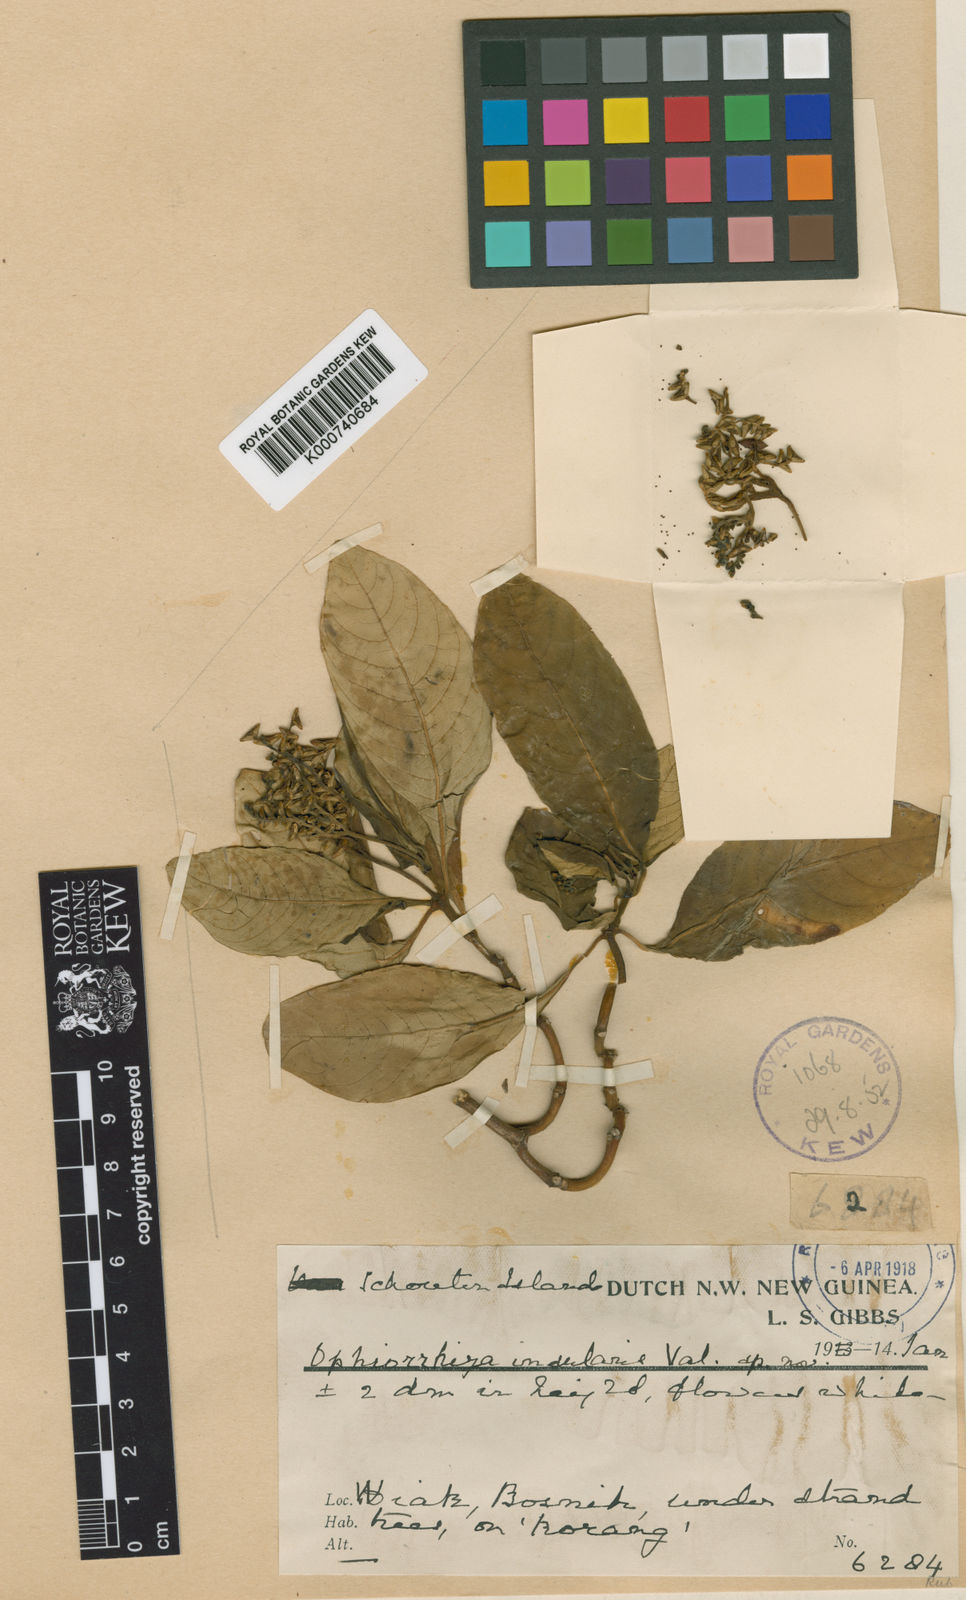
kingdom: Plantae
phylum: Tracheophyta
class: Magnoliopsida
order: Gentianales
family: Rubiaceae
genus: Ophiorrhiza
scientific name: Ophiorrhiza insularis
